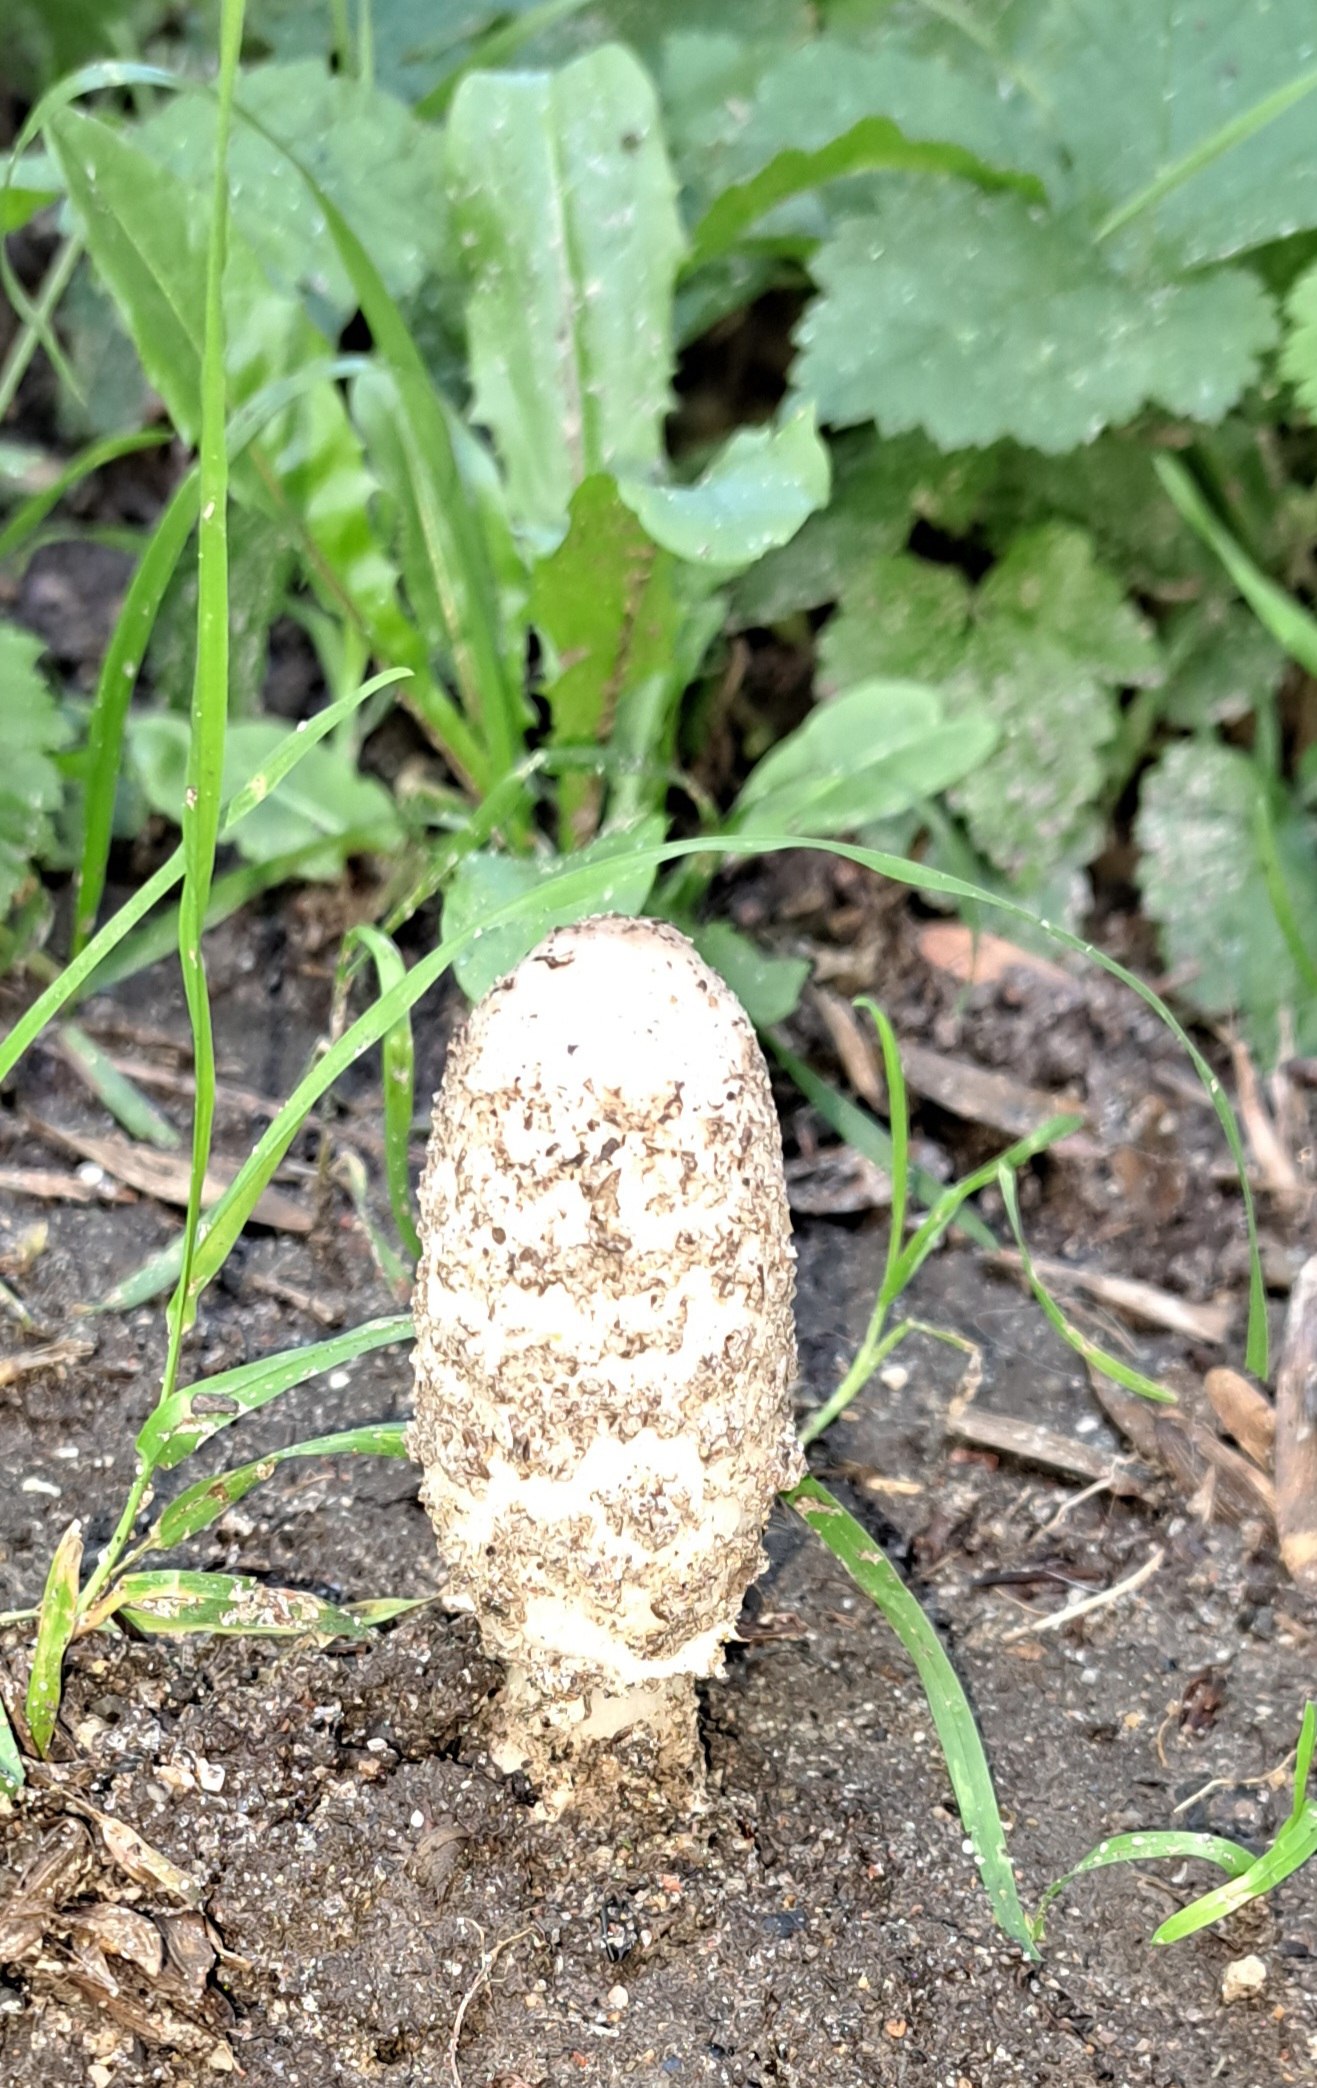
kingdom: Fungi
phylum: Basidiomycota
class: Agaricomycetes
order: Agaricales
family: Agaricaceae
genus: Coprinus
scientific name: Coprinus comatus
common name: stor parykhat
